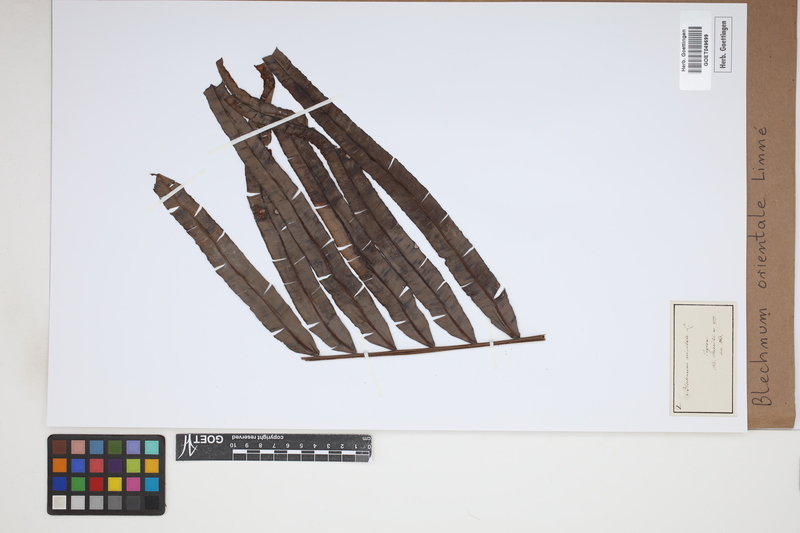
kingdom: Plantae
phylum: Tracheophyta
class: Polypodiopsida
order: Polypodiales
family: Blechnaceae
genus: Blechnopsis
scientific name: Blechnopsis orientalis
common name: Oriental blechnum
